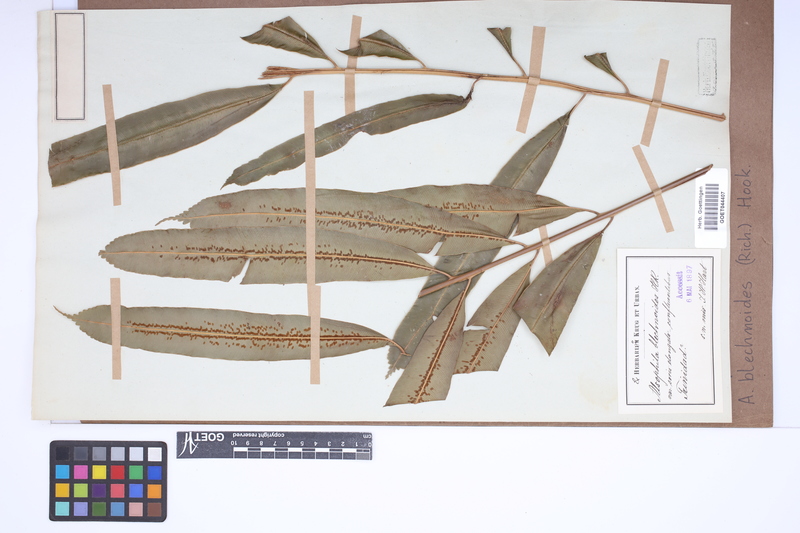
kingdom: Plantae
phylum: Tracheophyta
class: Polypodiopsida
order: Cyatheales
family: Metaxyaceae
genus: Metaxya
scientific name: Metaxya rostrata
